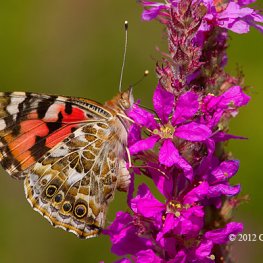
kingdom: Animalia
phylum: Arthropoda
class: Insecta
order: Lepidoptera
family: Nymphalidae
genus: Vanessa
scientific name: Vanessa cardui
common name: Painted Lady
